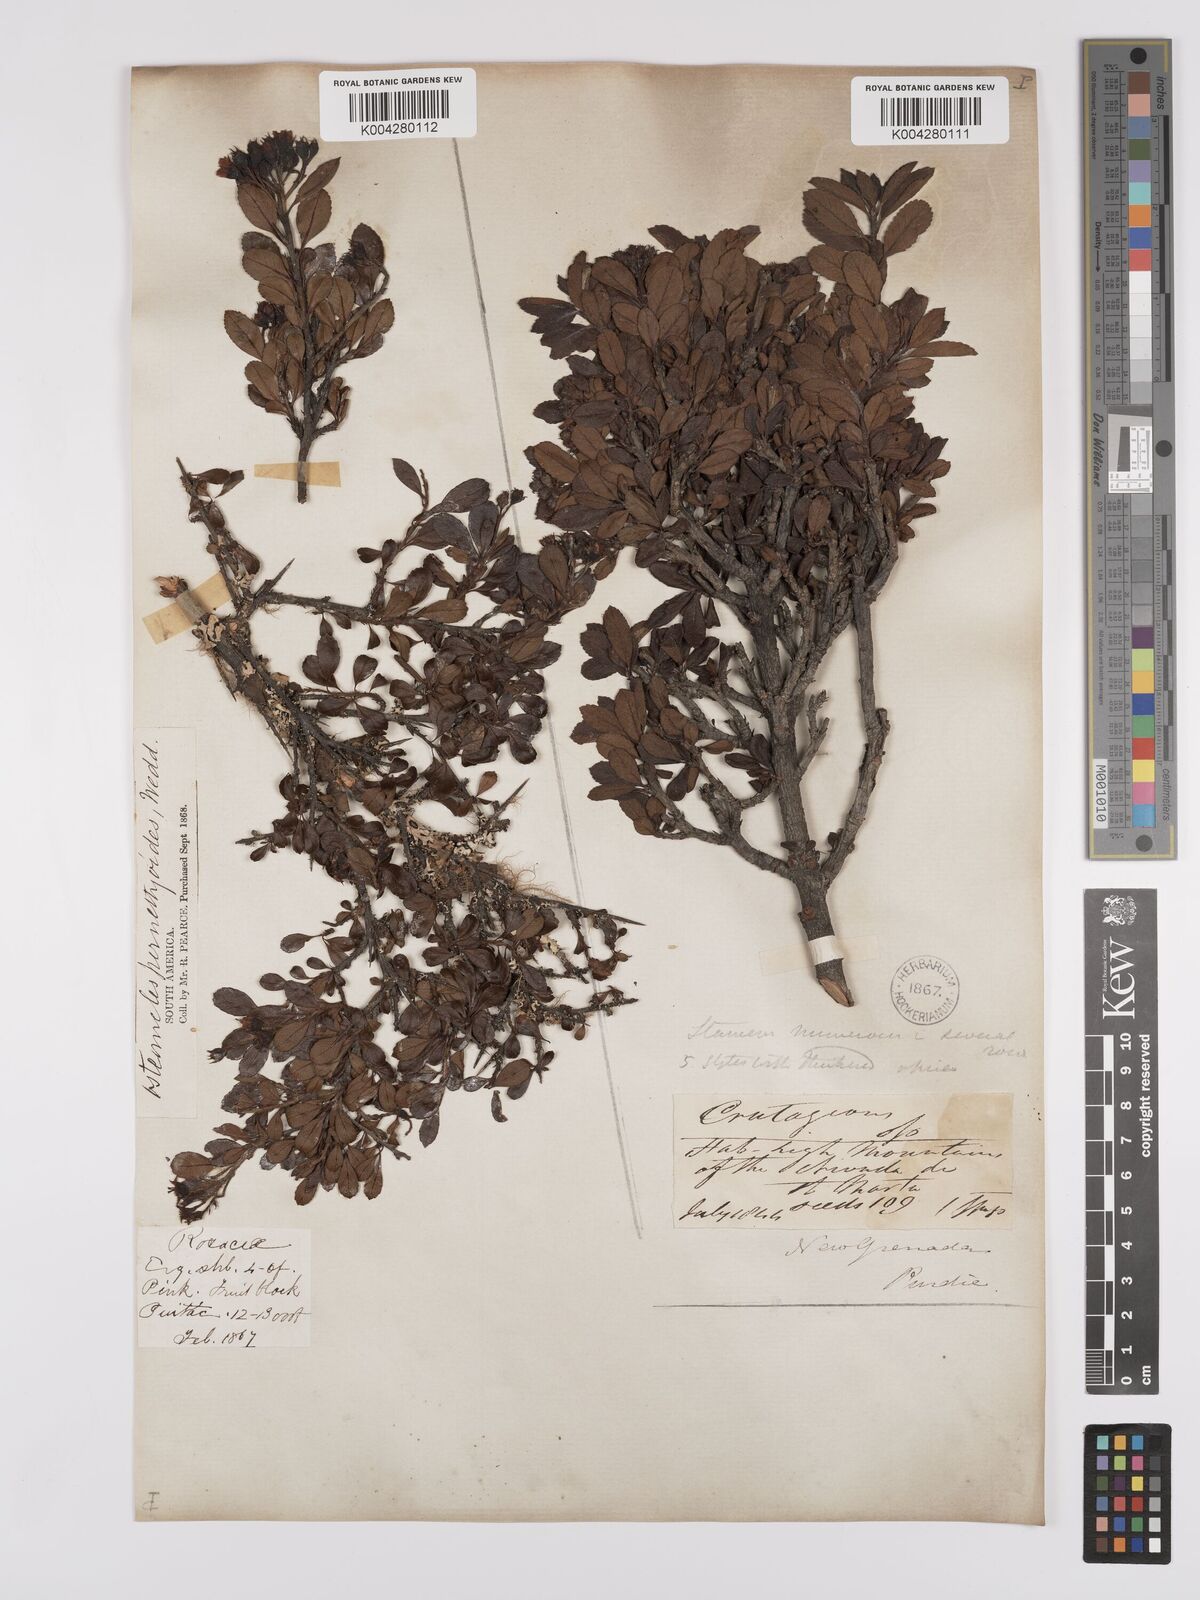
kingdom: Plantae
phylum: Tracheophyta
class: Magnoliopsida
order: Rosales
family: Rosaceae
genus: Hesperomeles
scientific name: Hesperomeles obtusifolia
